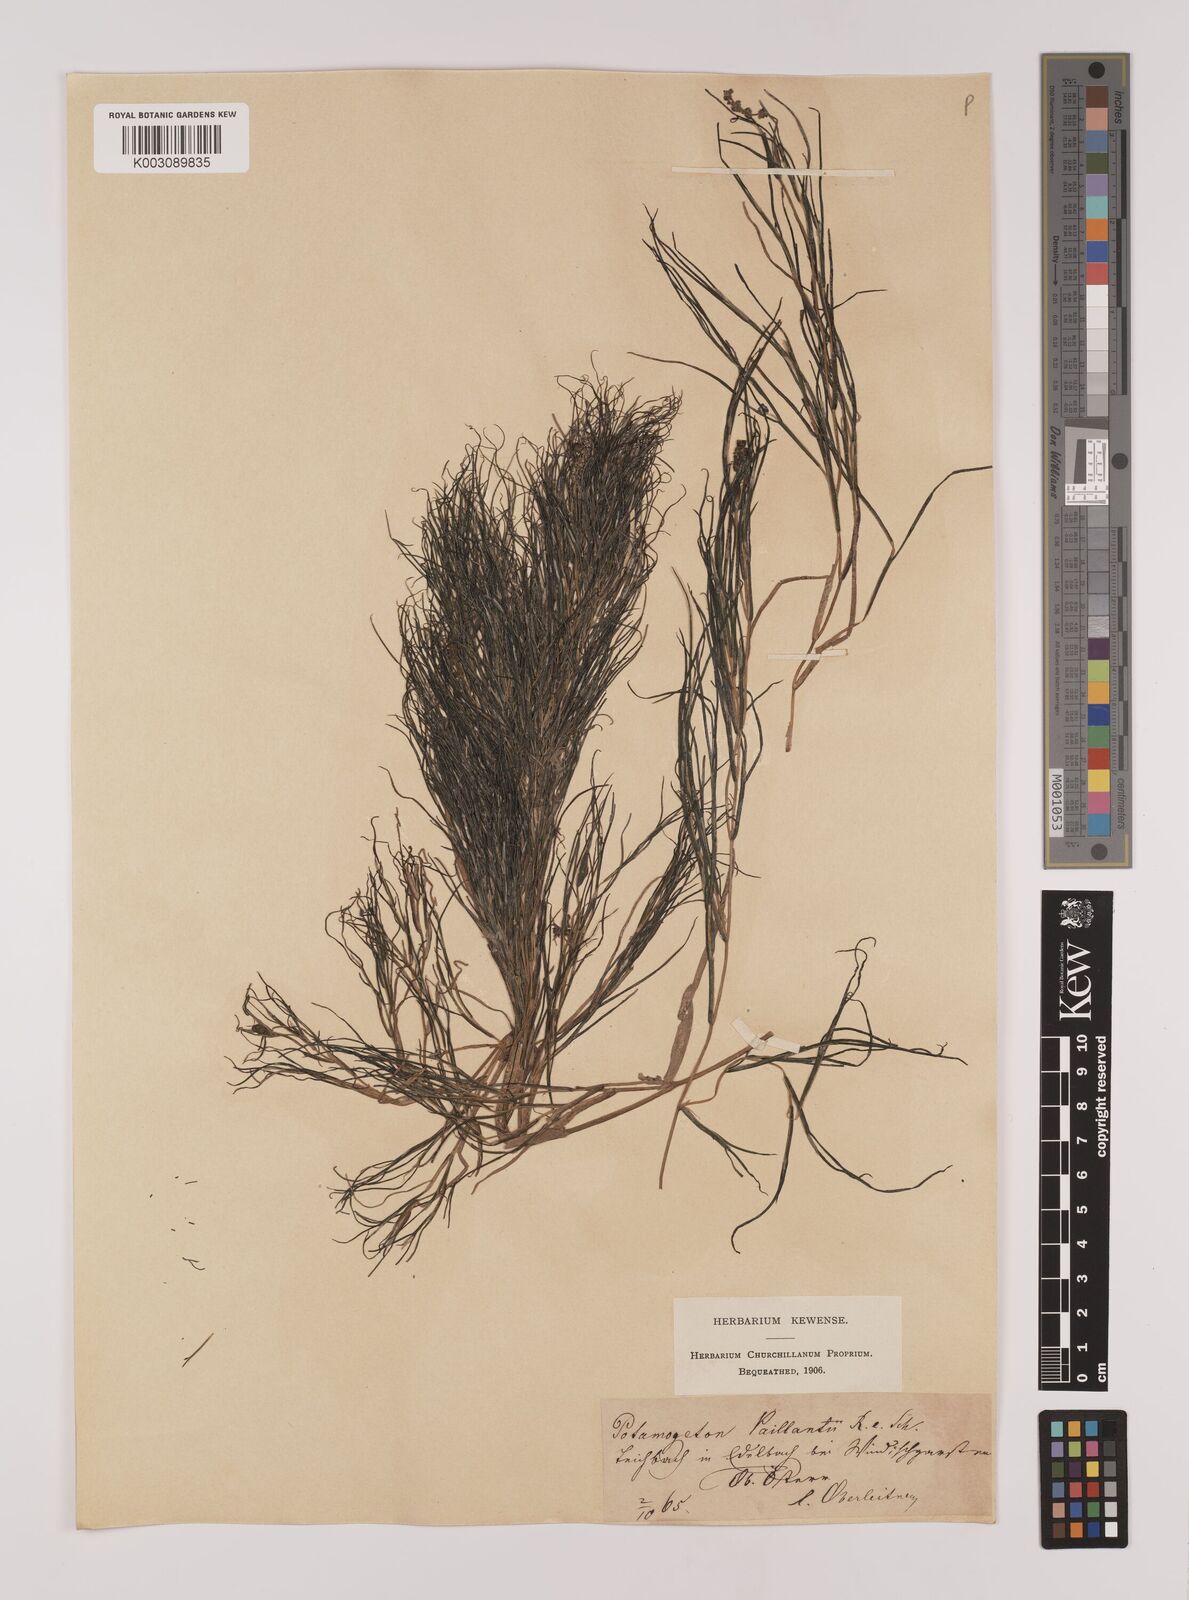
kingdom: Plantae
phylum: Tracheophyta
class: Liliopsida
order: Alismatales
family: Potamogetonaceae
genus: Stuckenia
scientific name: Stuckenia pectinata
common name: Sago pondweed
